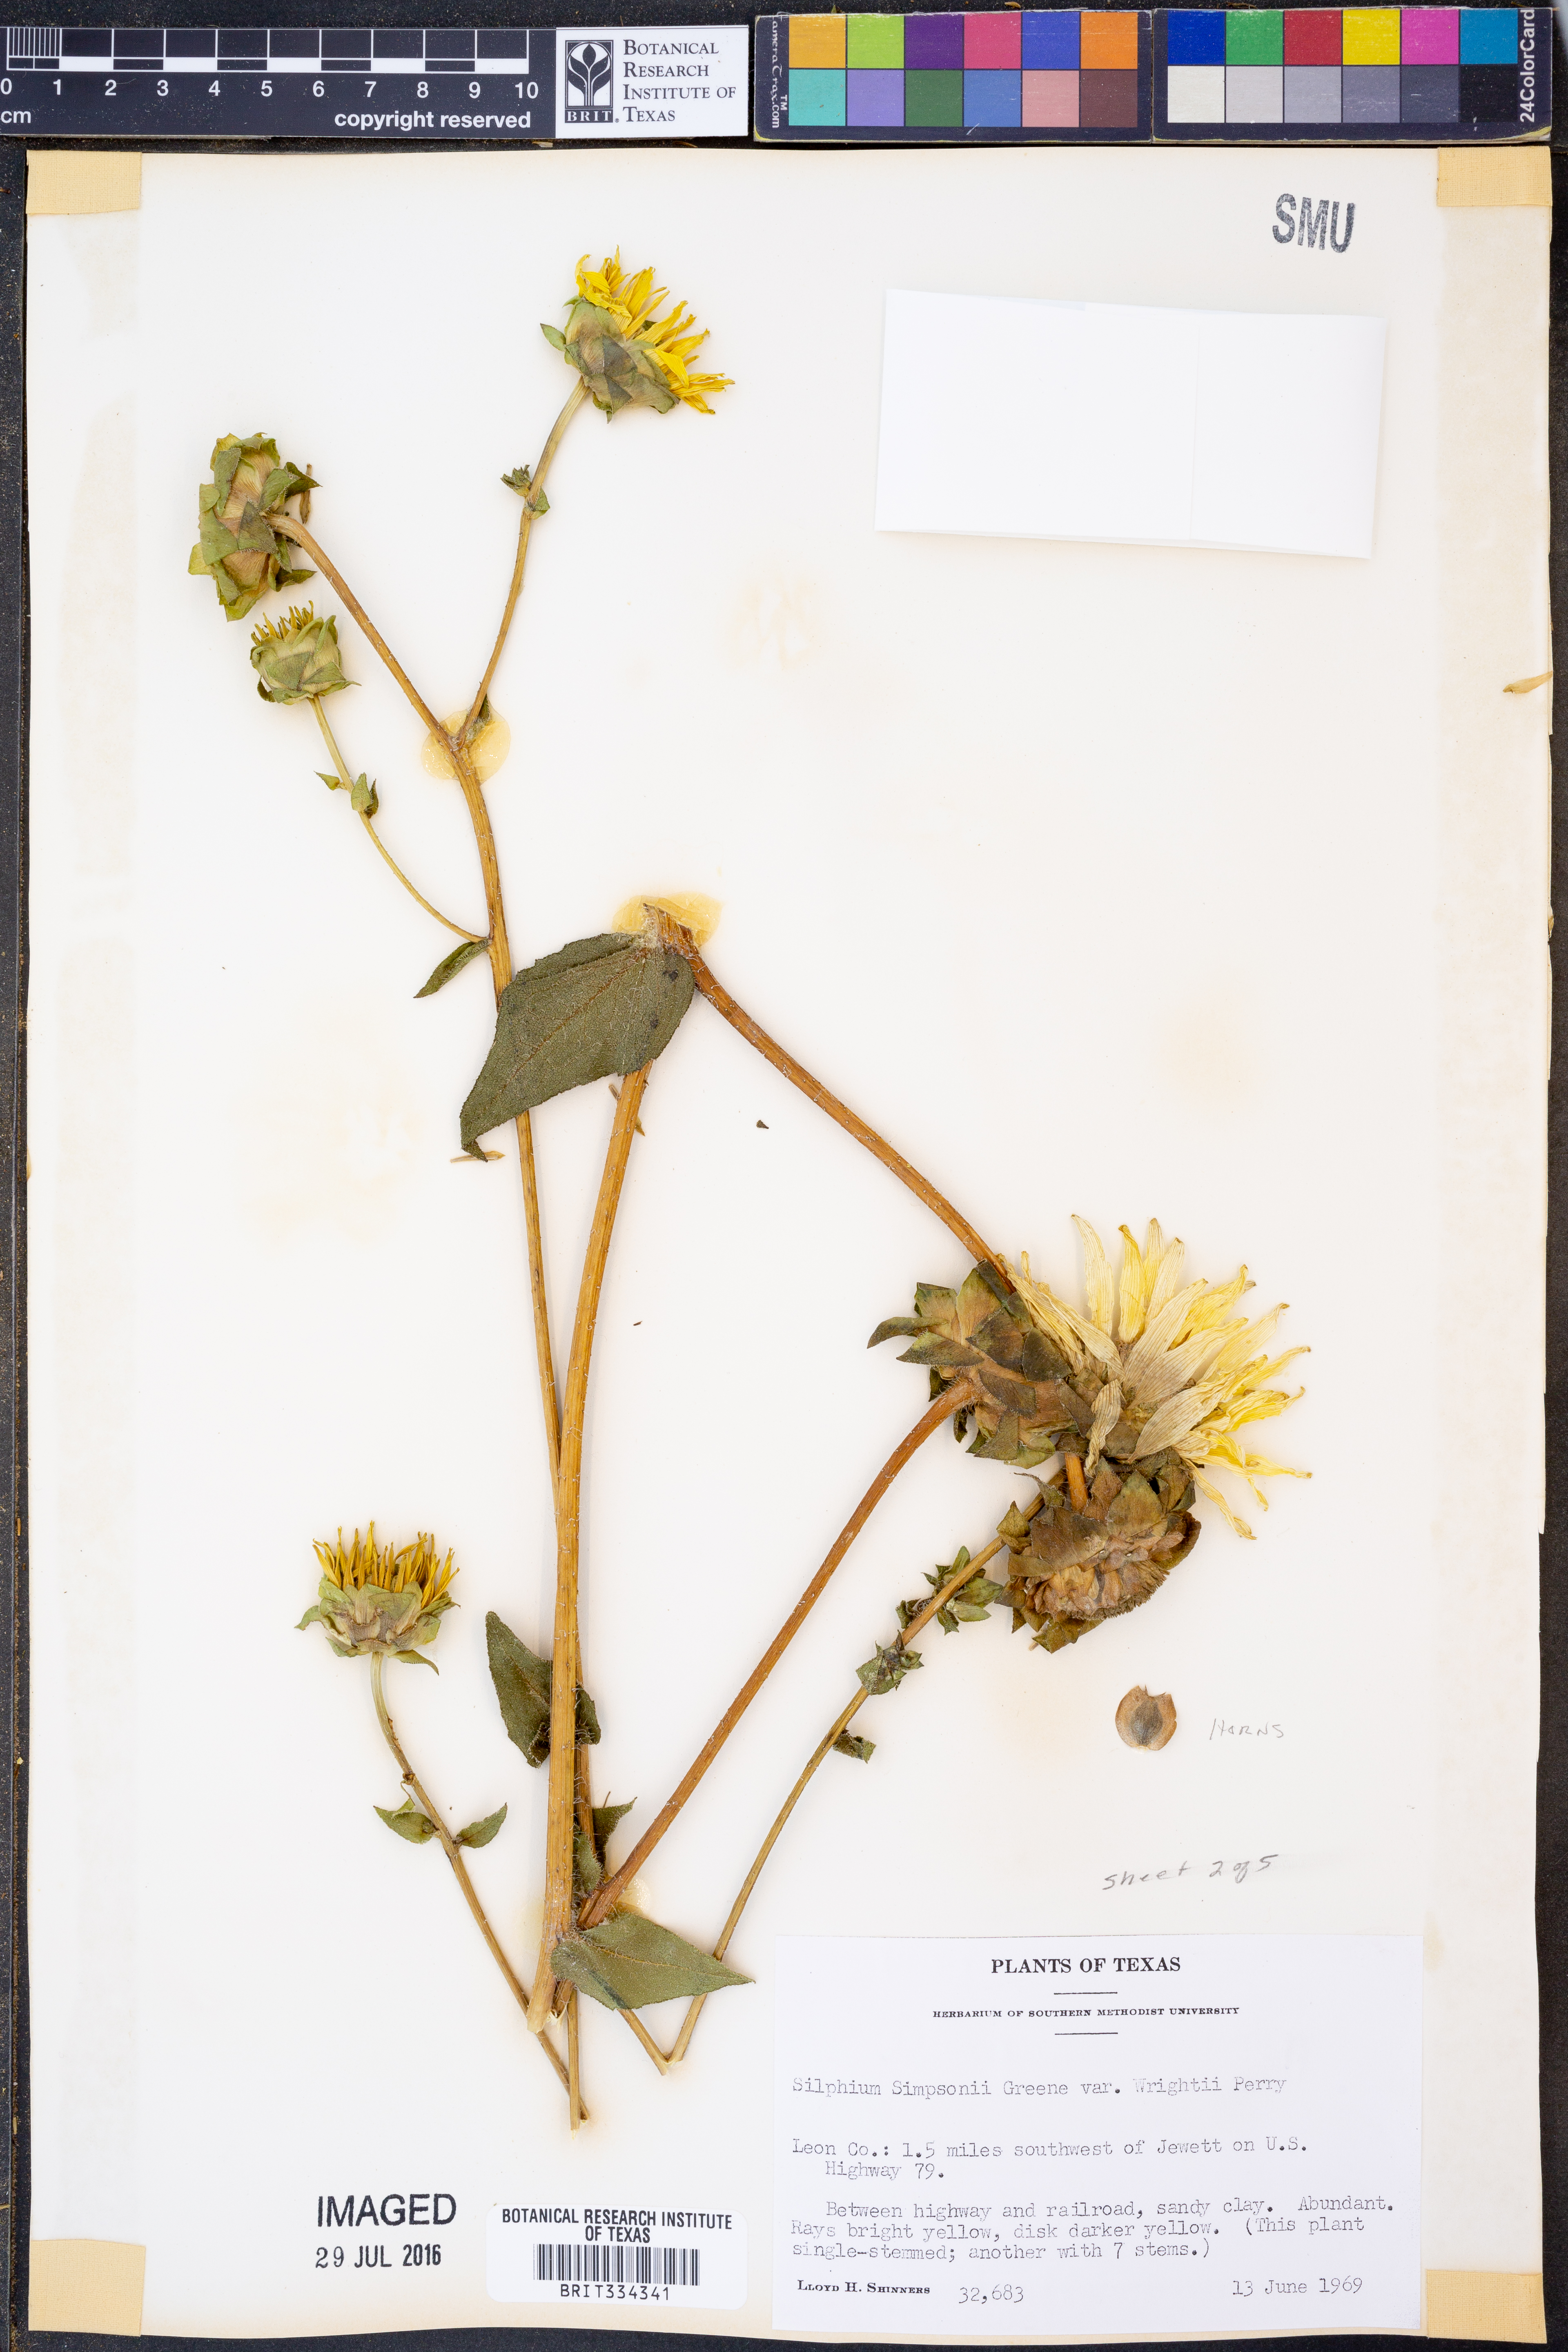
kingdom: Plantae
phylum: Tracheophyta
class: Magnoliopsida
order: Asterales
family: Asteraceae
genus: Silphium
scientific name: Silphium radula
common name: Roughleaf rosinweed
